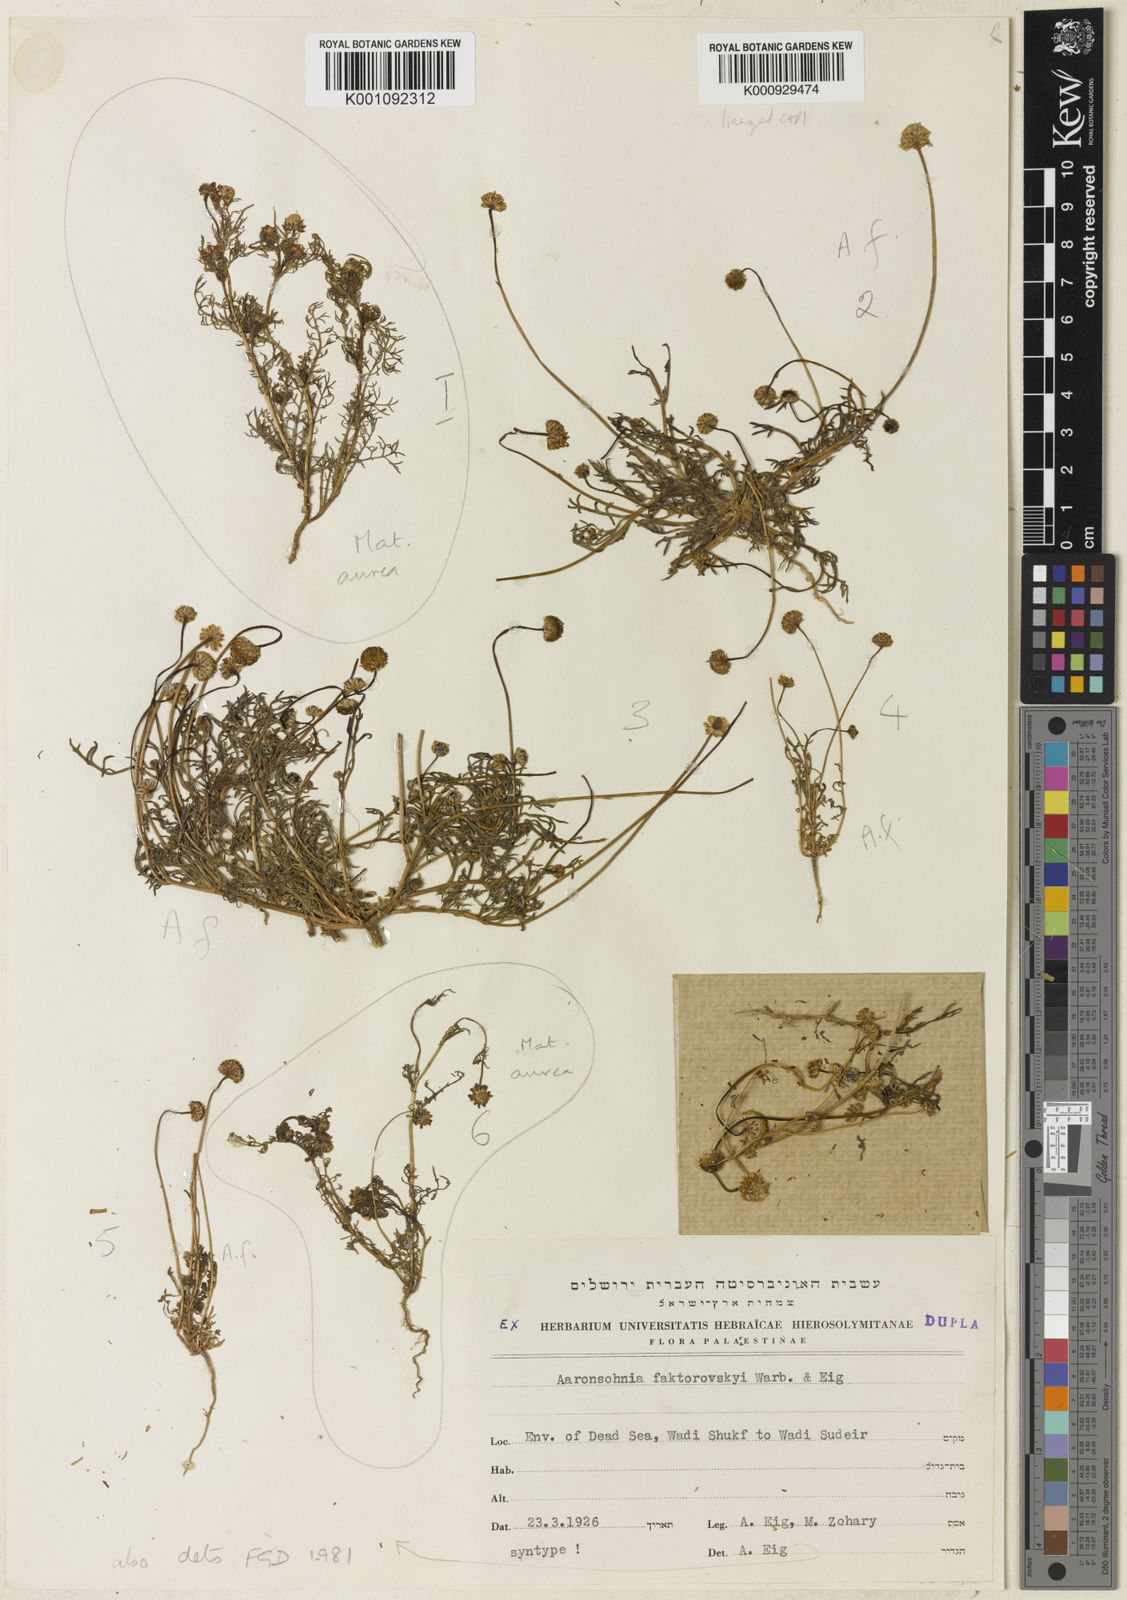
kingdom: Plantae
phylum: Tracheophyta
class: Magnoliopsida
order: Asterales
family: Asteraceae
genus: Otoglyphis
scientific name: Otoglyphis factorovskyi
